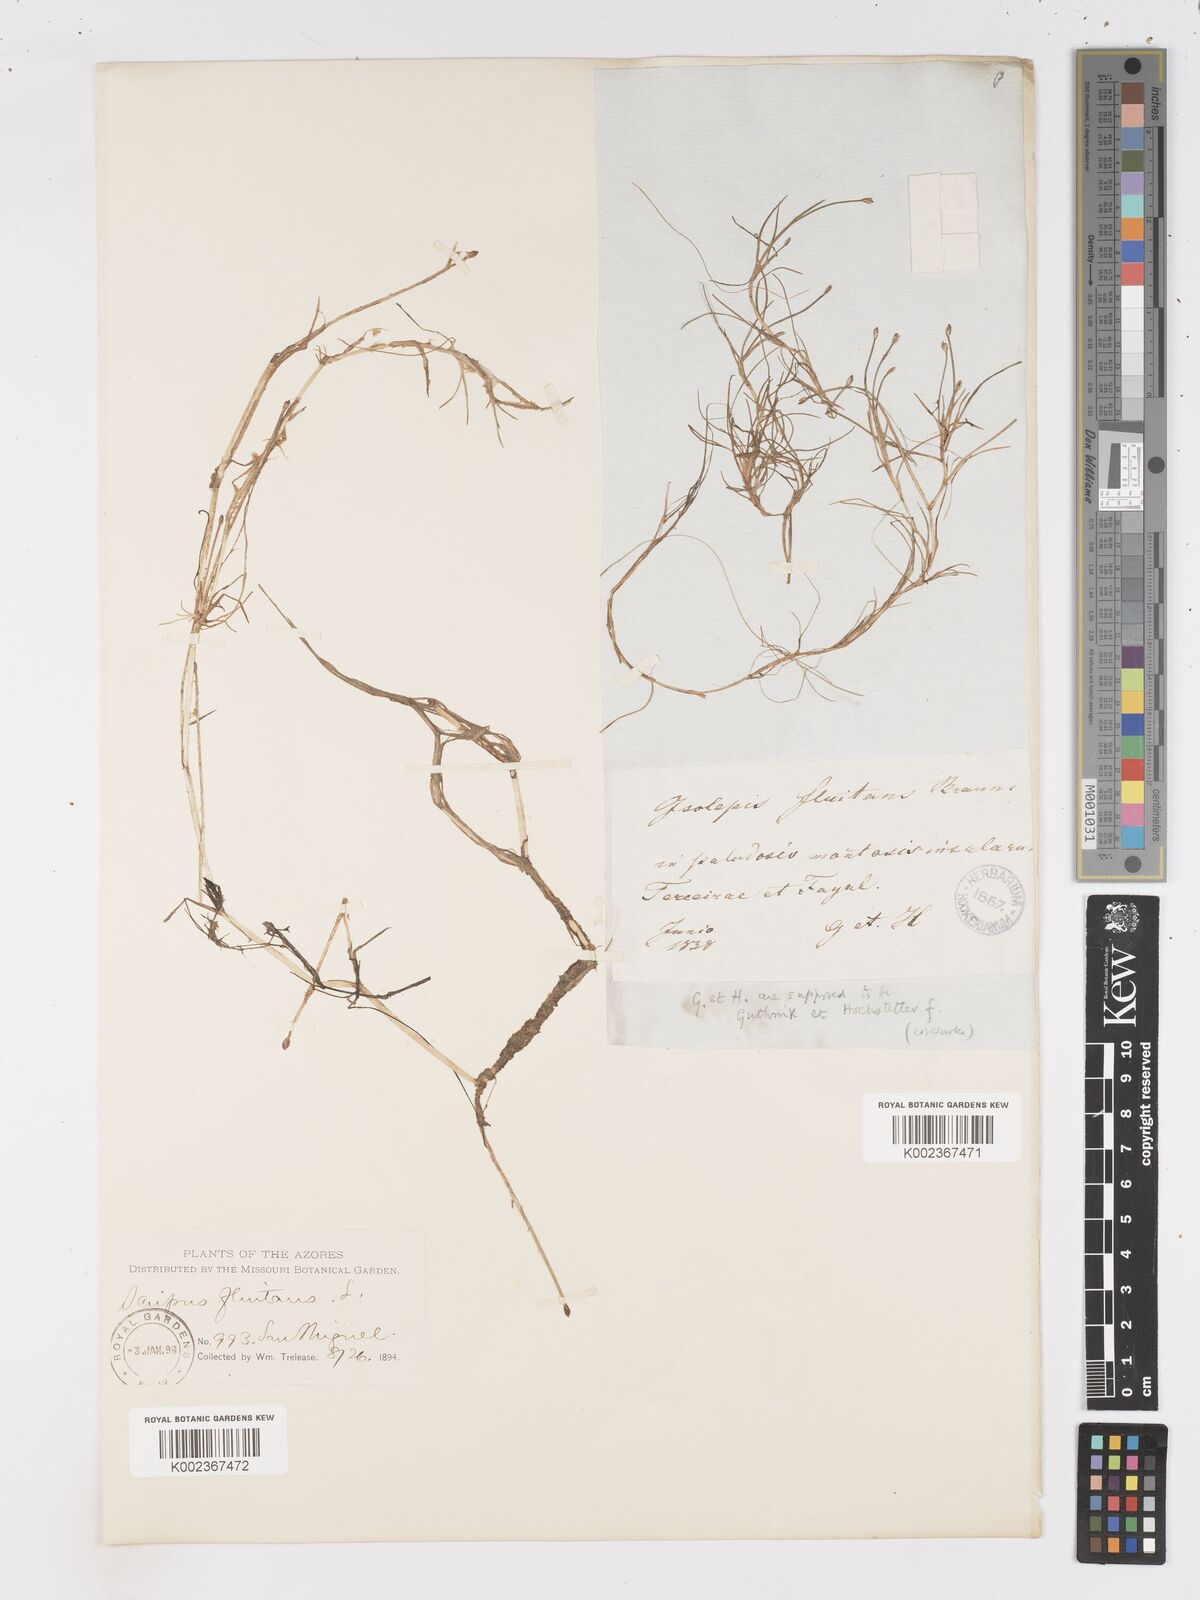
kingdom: Plantae
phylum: Tracheophyta
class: Liliopsida
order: Poales
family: Cyperaceae
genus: Isolepis
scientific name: Isolepis fluitans
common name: Floating club-rush
